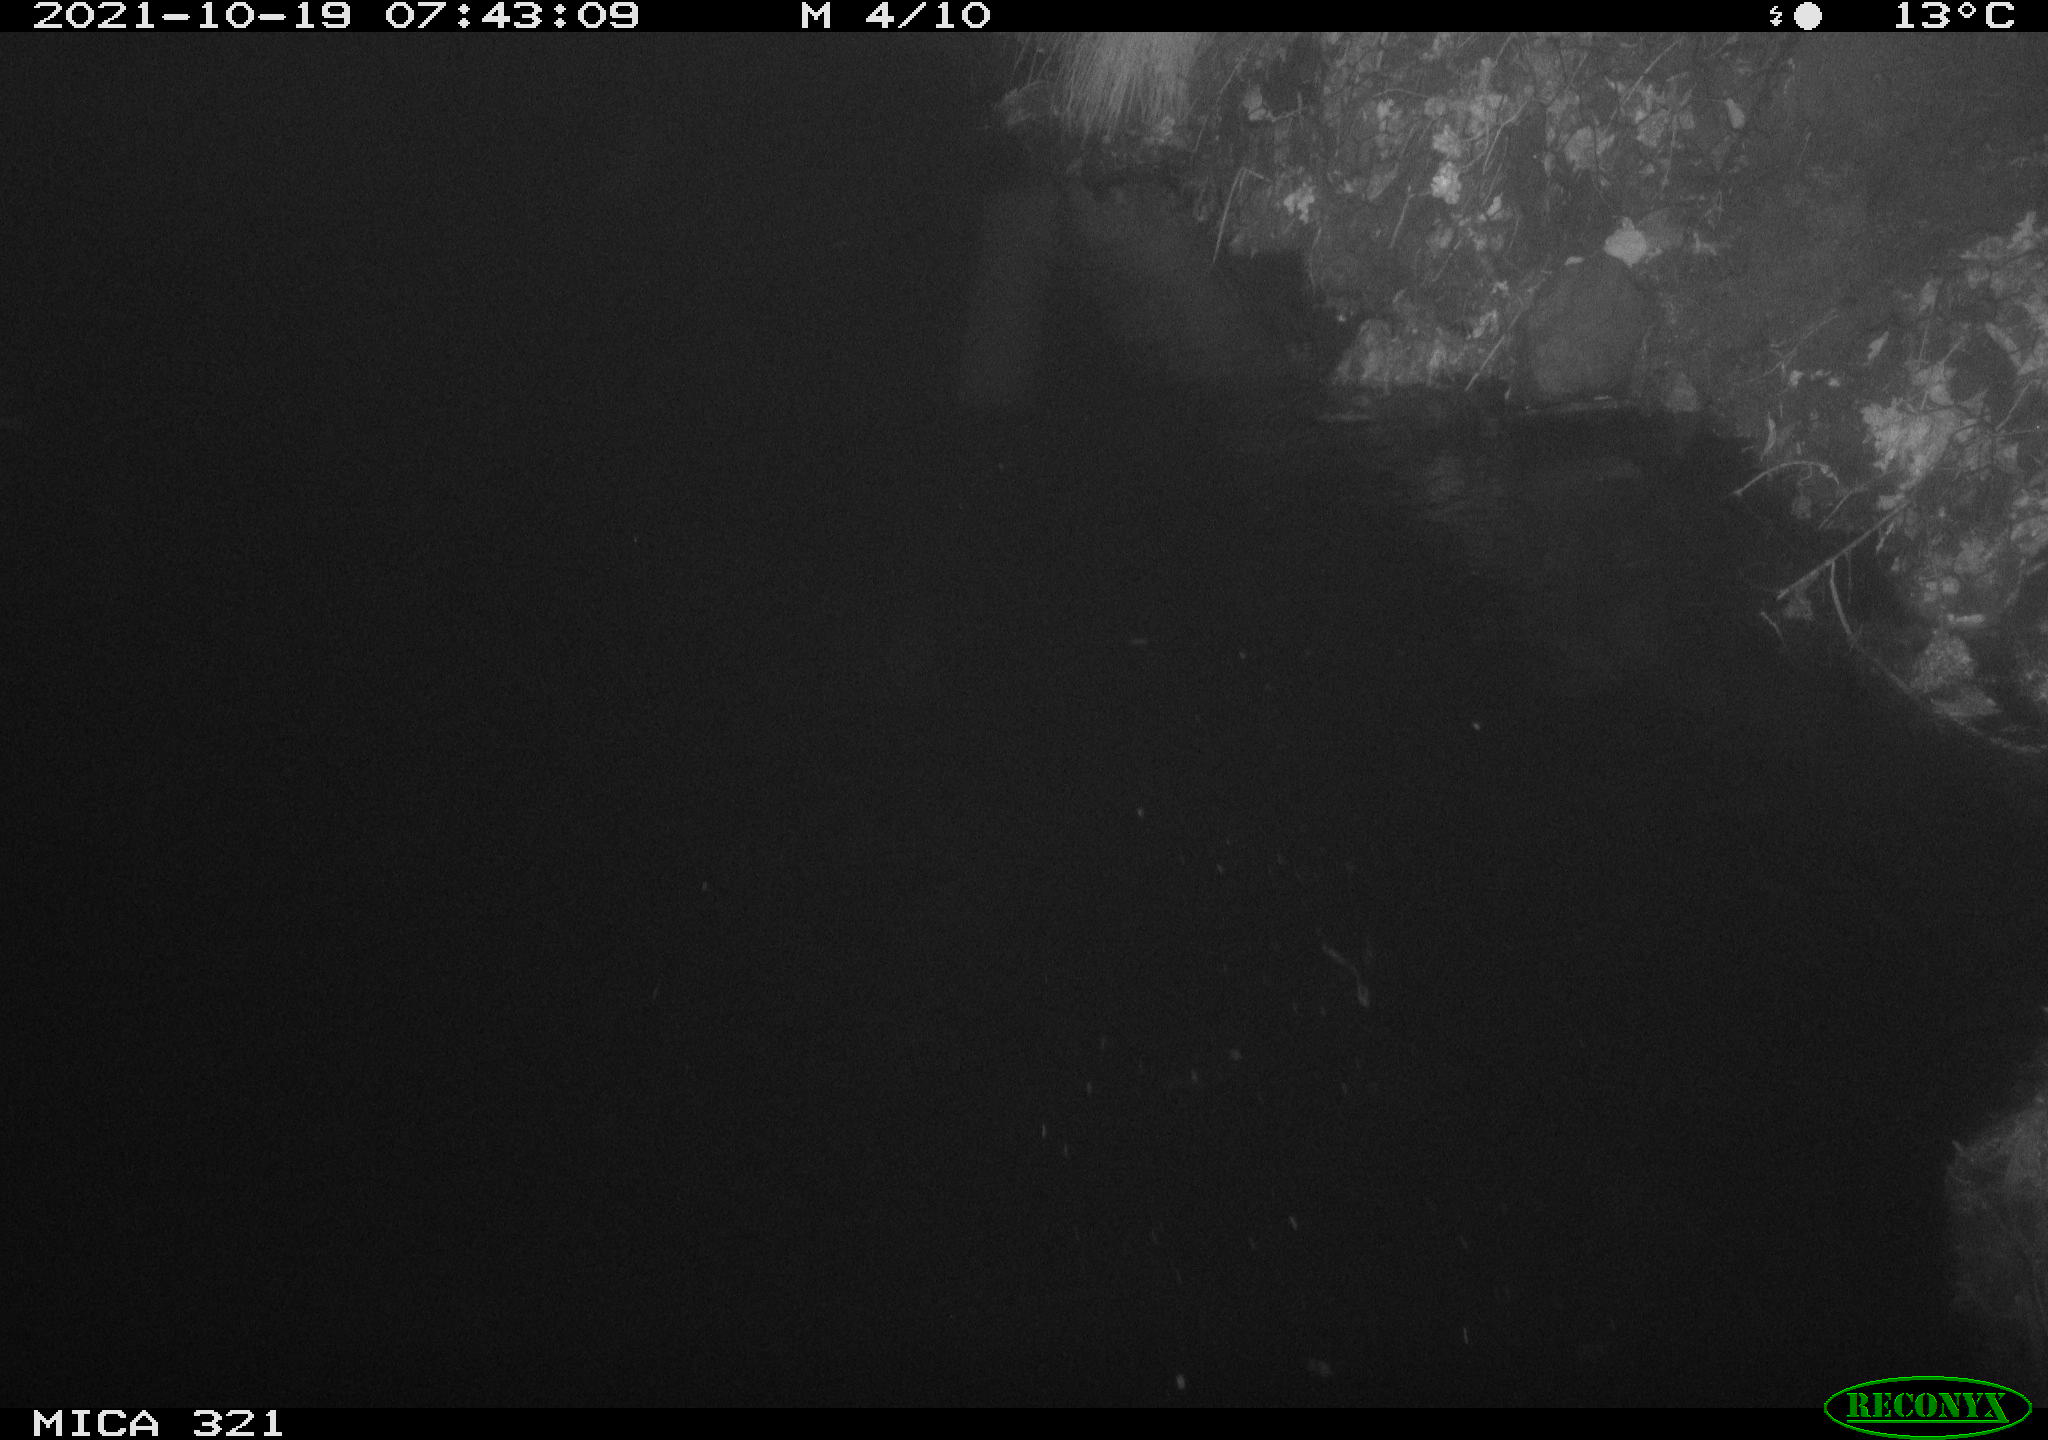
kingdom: Animalia
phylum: Chordata
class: Aves
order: Anseriformes
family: Anatidae
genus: Anas
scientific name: Anas platyrhynchos
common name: Mallard
